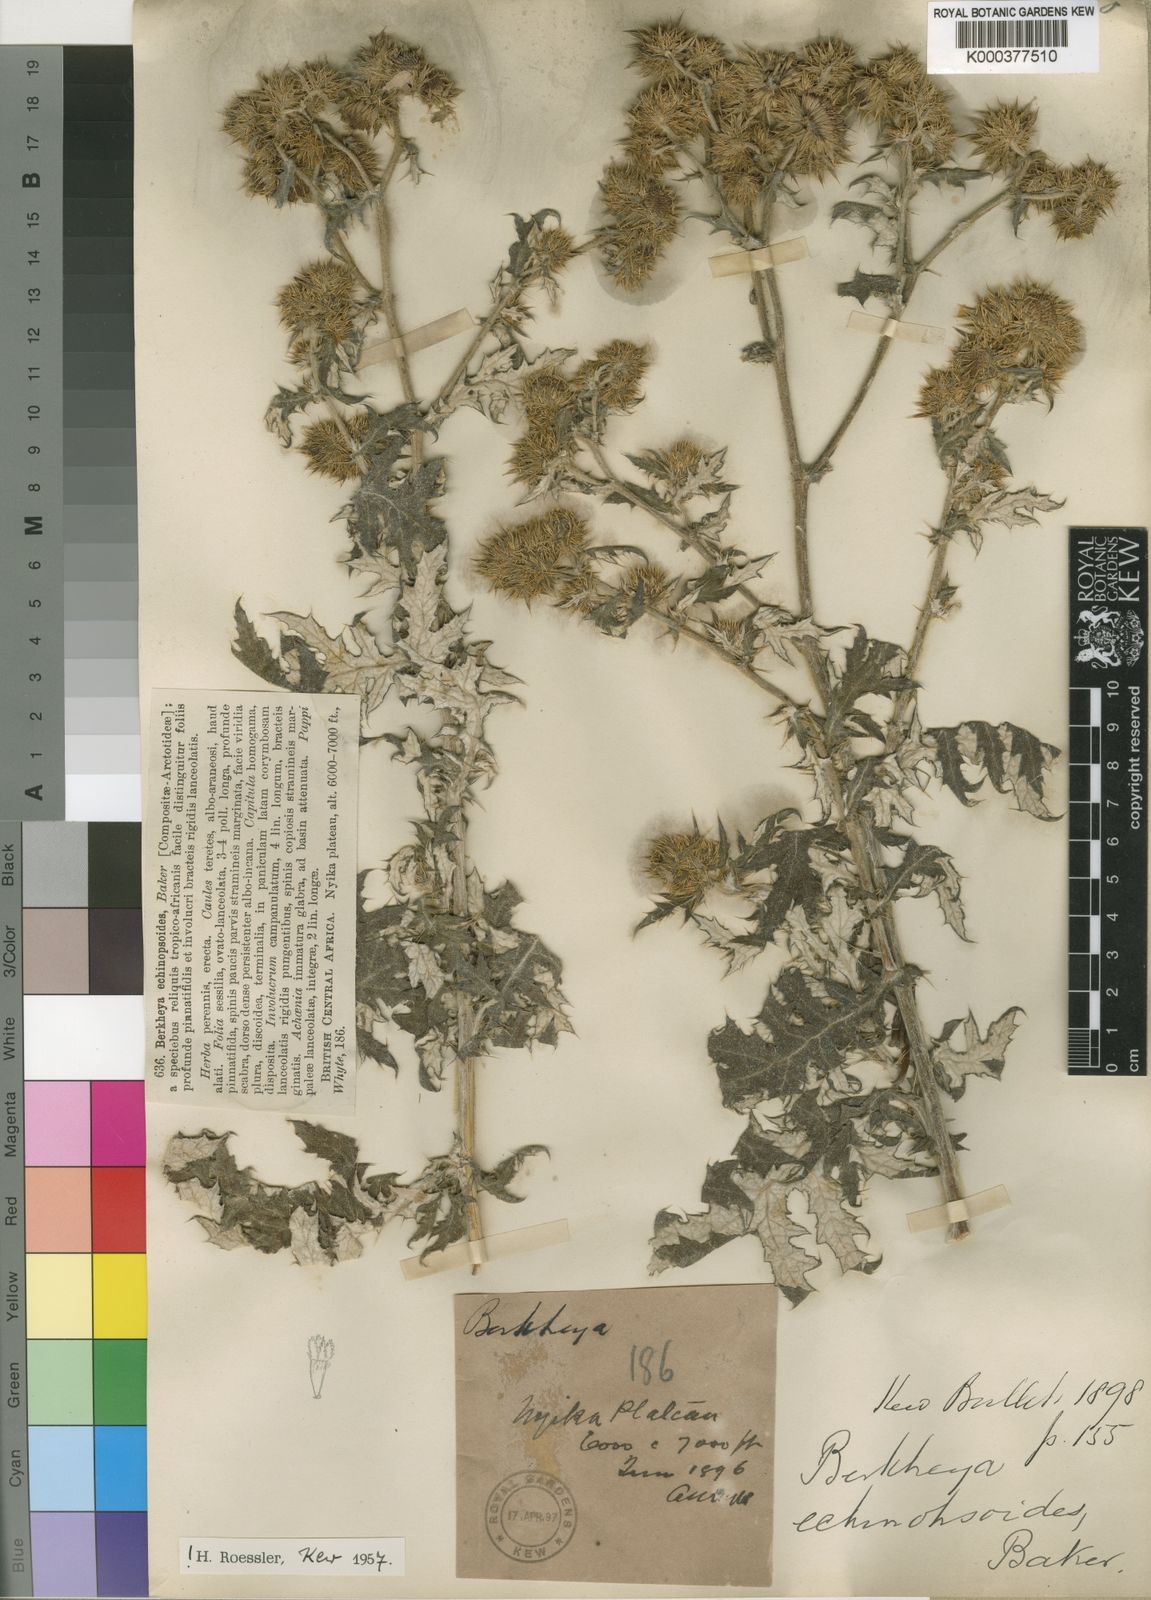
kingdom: Plantae
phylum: Tracheophyta
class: Magnoliopsida
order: Asterales
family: Asteraceae
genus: Berkheya
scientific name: Berkheya bipinnatifida
